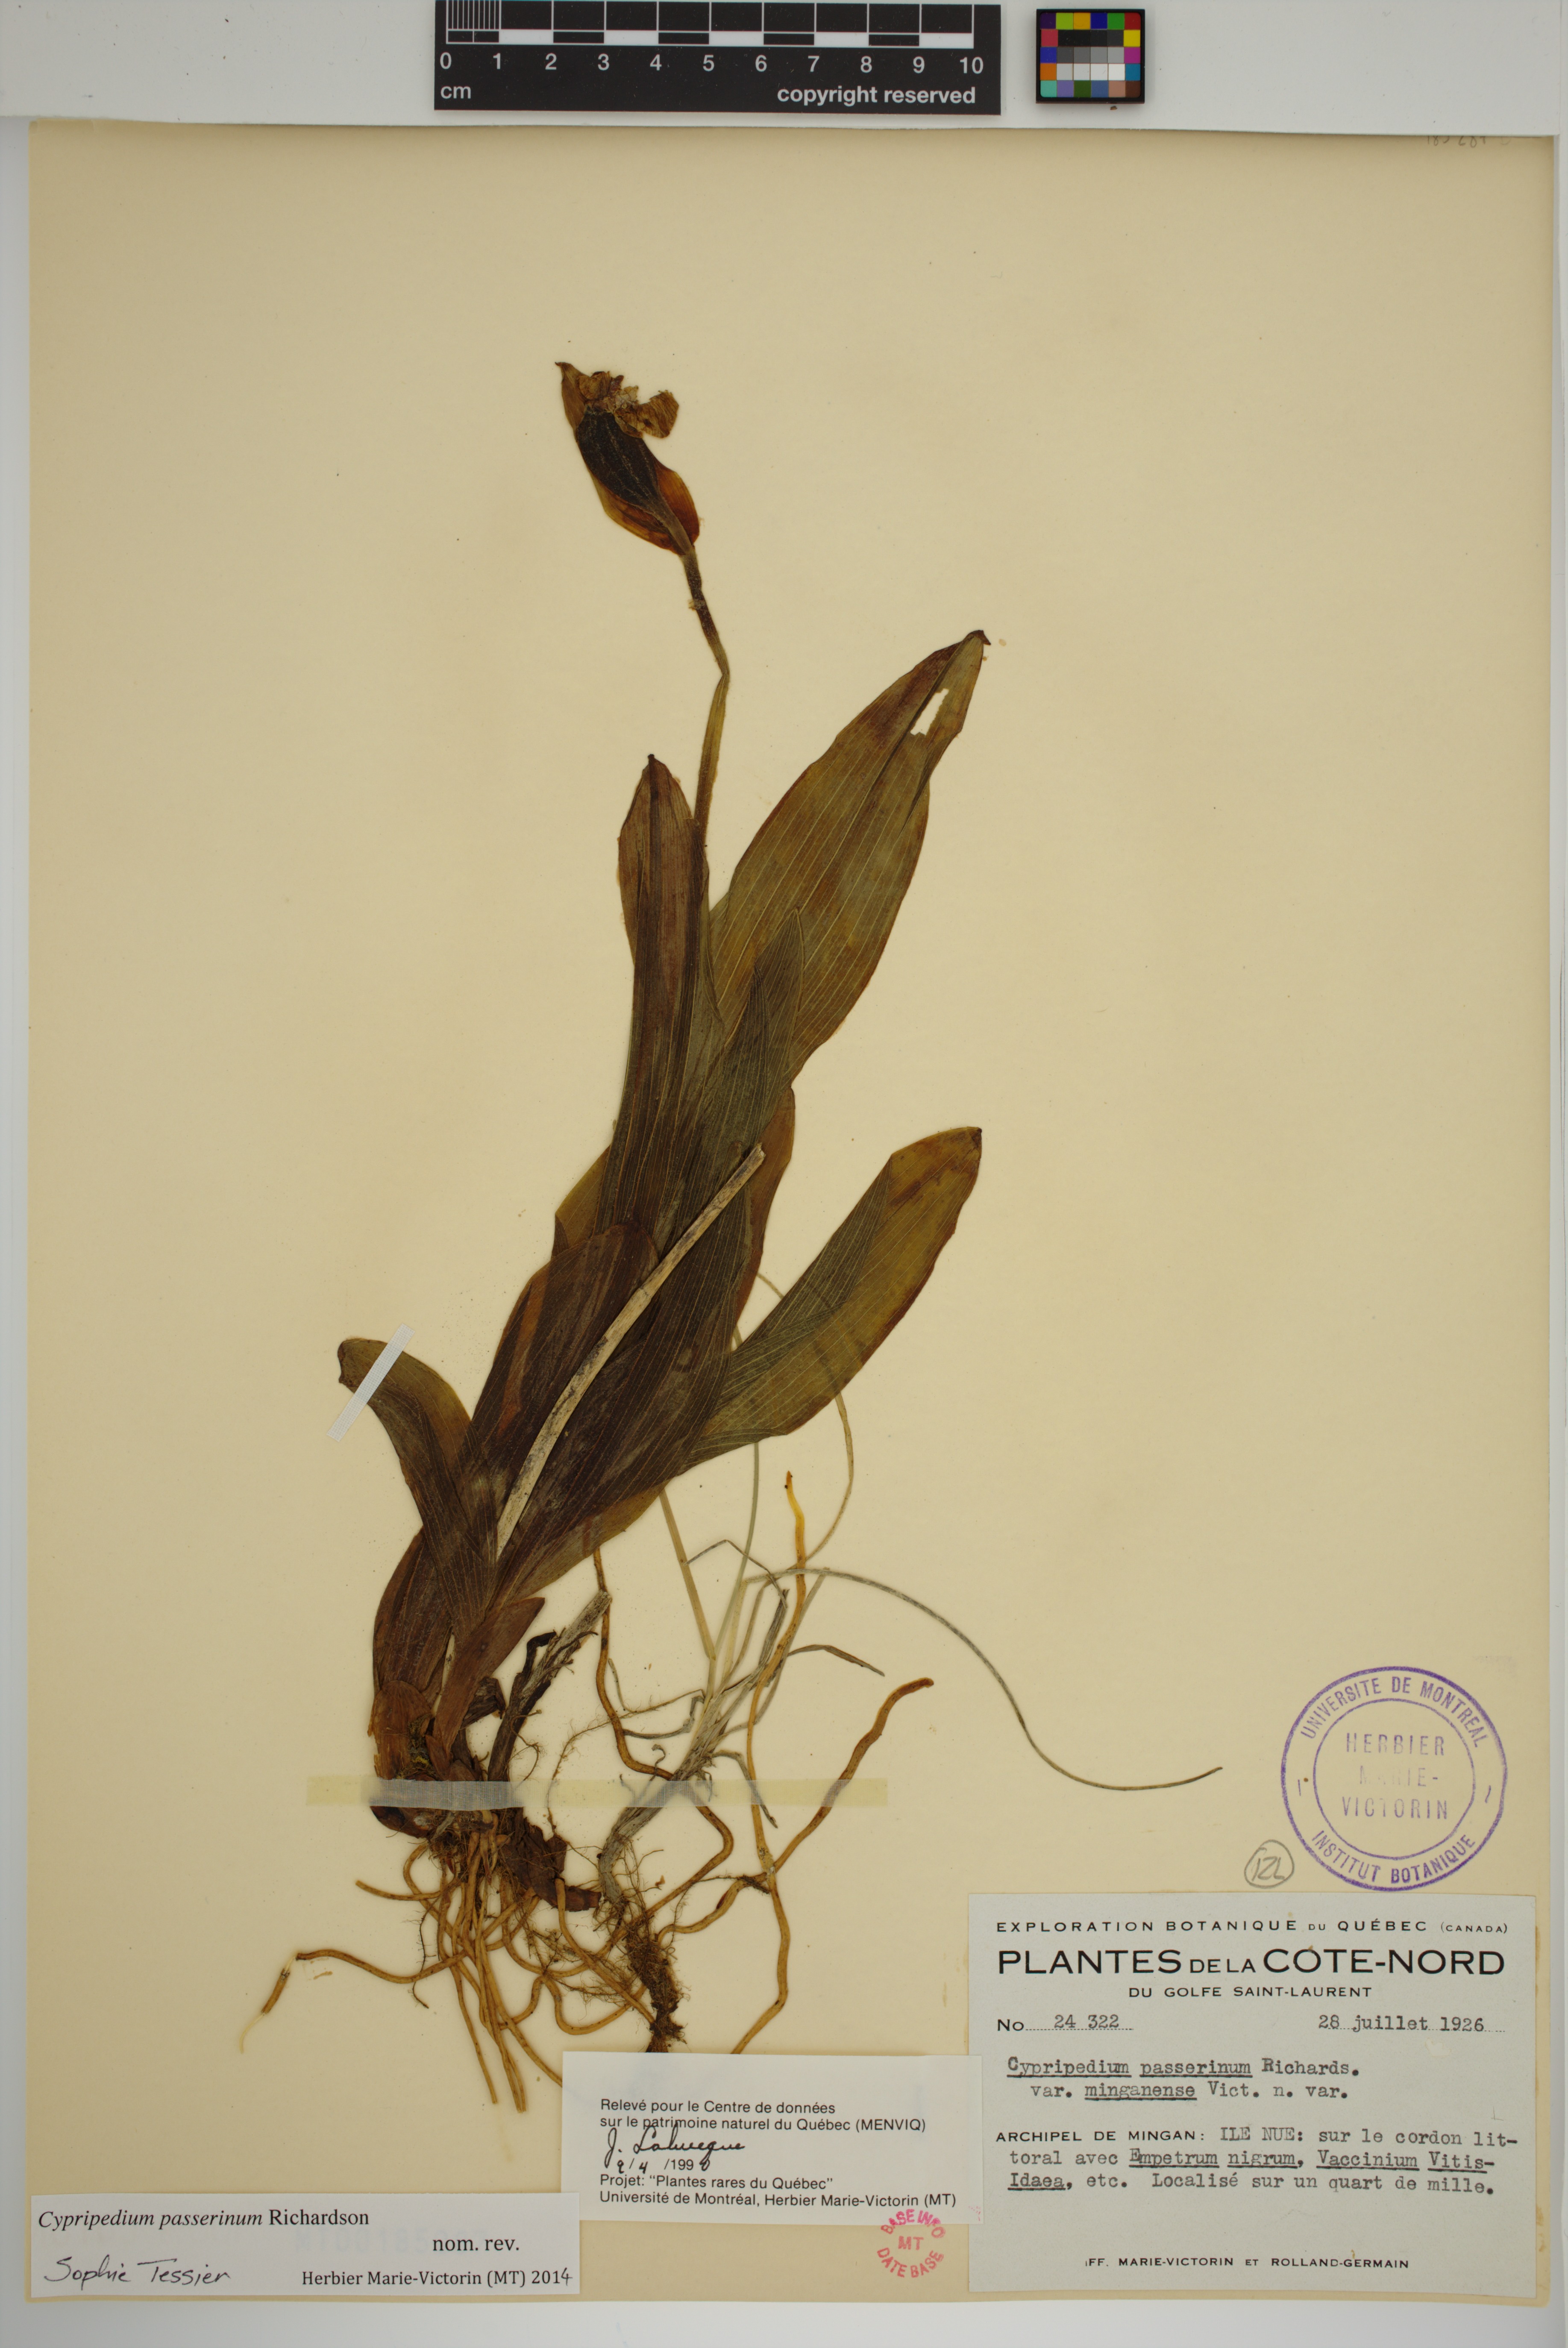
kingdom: Plantae
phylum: Tracheophyta
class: Liliopsida
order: Asparagales
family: Orchidaceae
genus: Cypripedium
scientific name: Cypripedium passerinum
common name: Sparrow's-egg lady's-slipper
